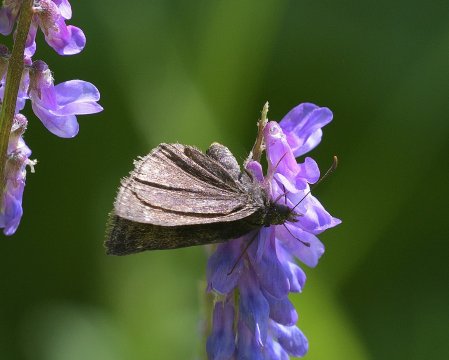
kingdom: Animalia
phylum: Arthropoda
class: Insecta
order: Lepidoptera
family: Hesperiidae
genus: Erynnis
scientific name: Erynnis icelus
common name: Dreamy Duskywing
